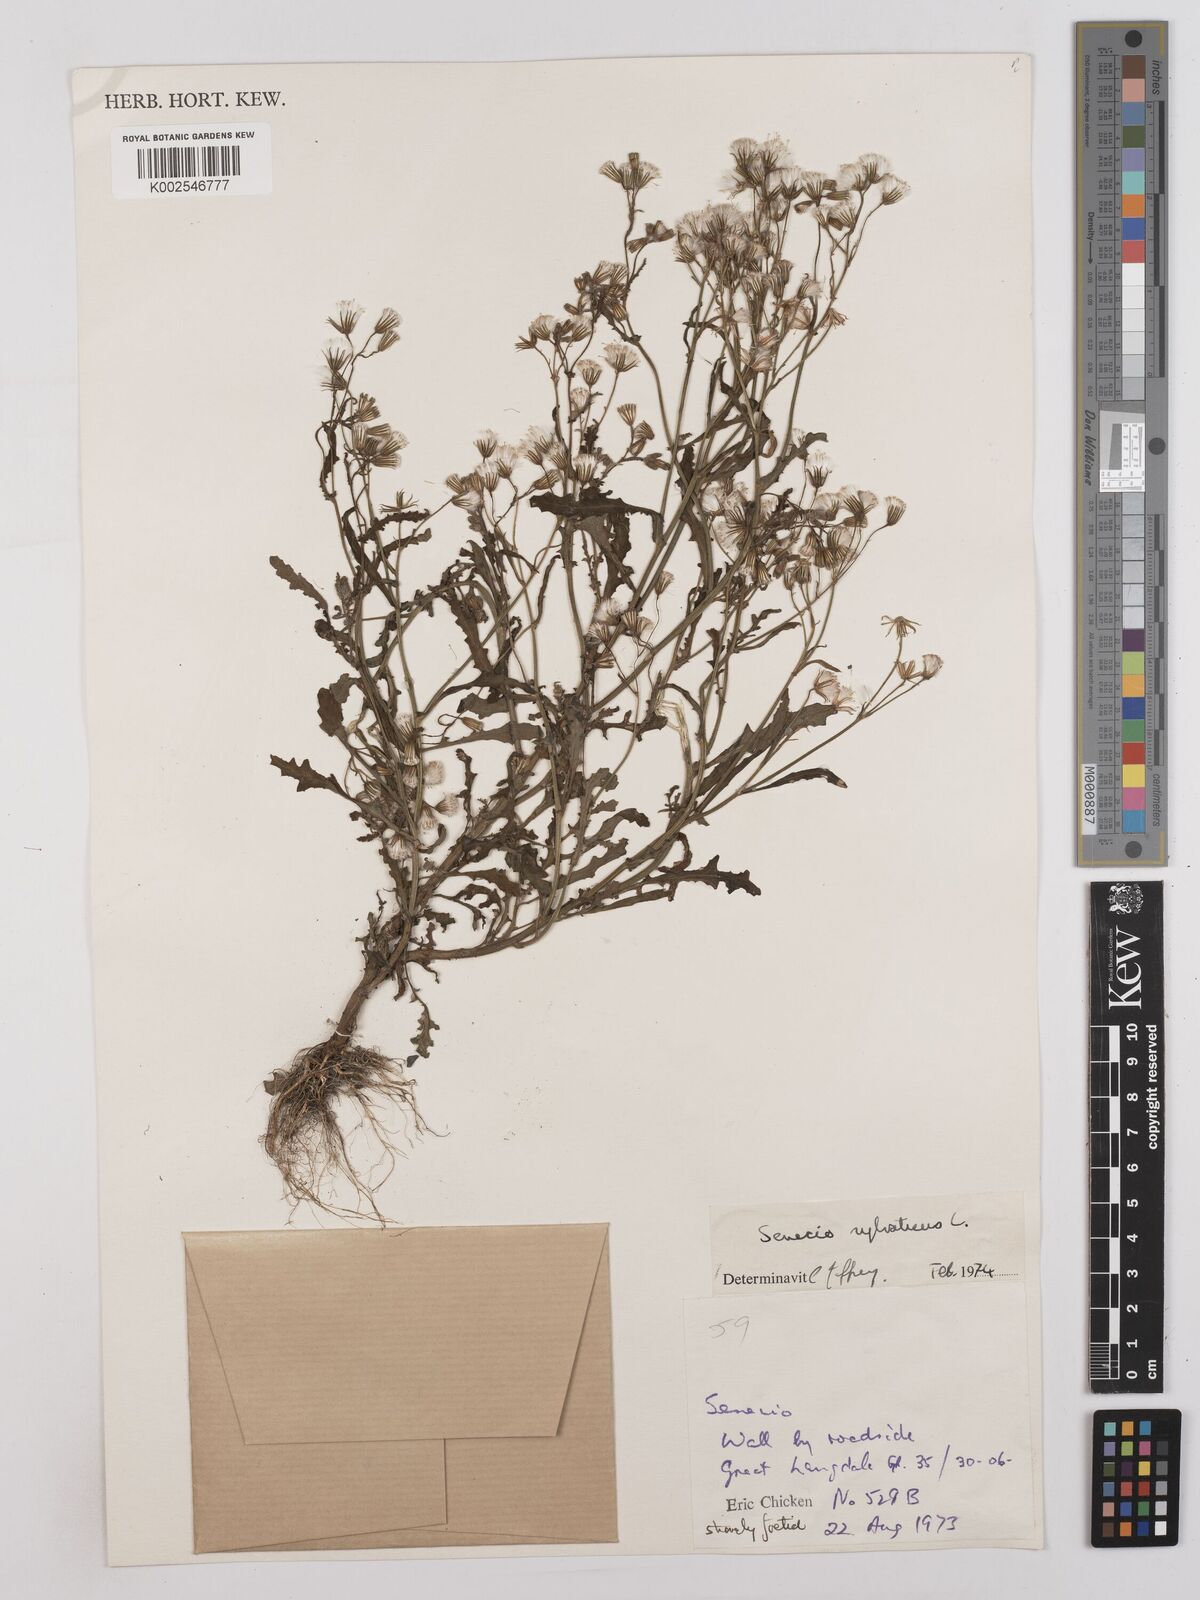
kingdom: Plantae
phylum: Tracheophyta
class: Magnoliopsida
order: Asterales
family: Asteraceae
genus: Senecio
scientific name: Senecio sylvaticus
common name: Woodland ragwort
